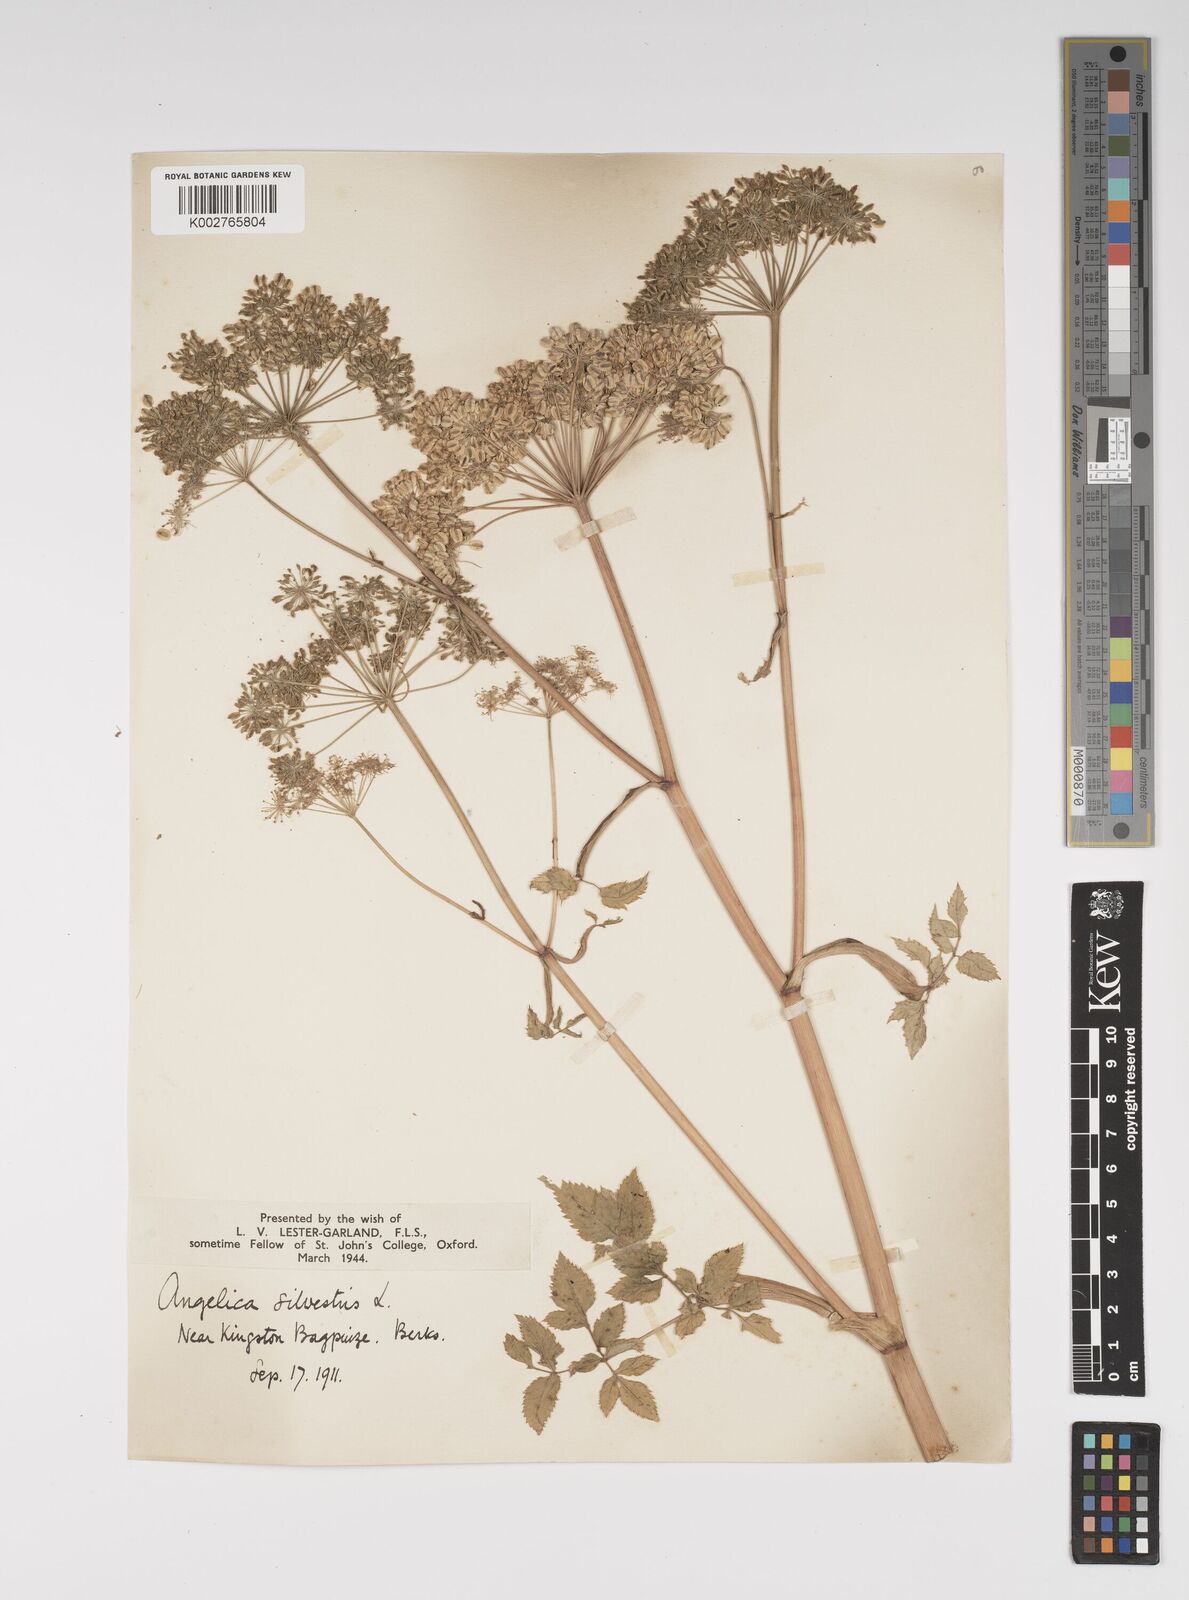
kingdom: Plantae
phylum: Tracheophyta
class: Magnoliopsida
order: Apiales
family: Apiaceae
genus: Angelica
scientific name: Angelica sylvestris
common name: Wild angelica
